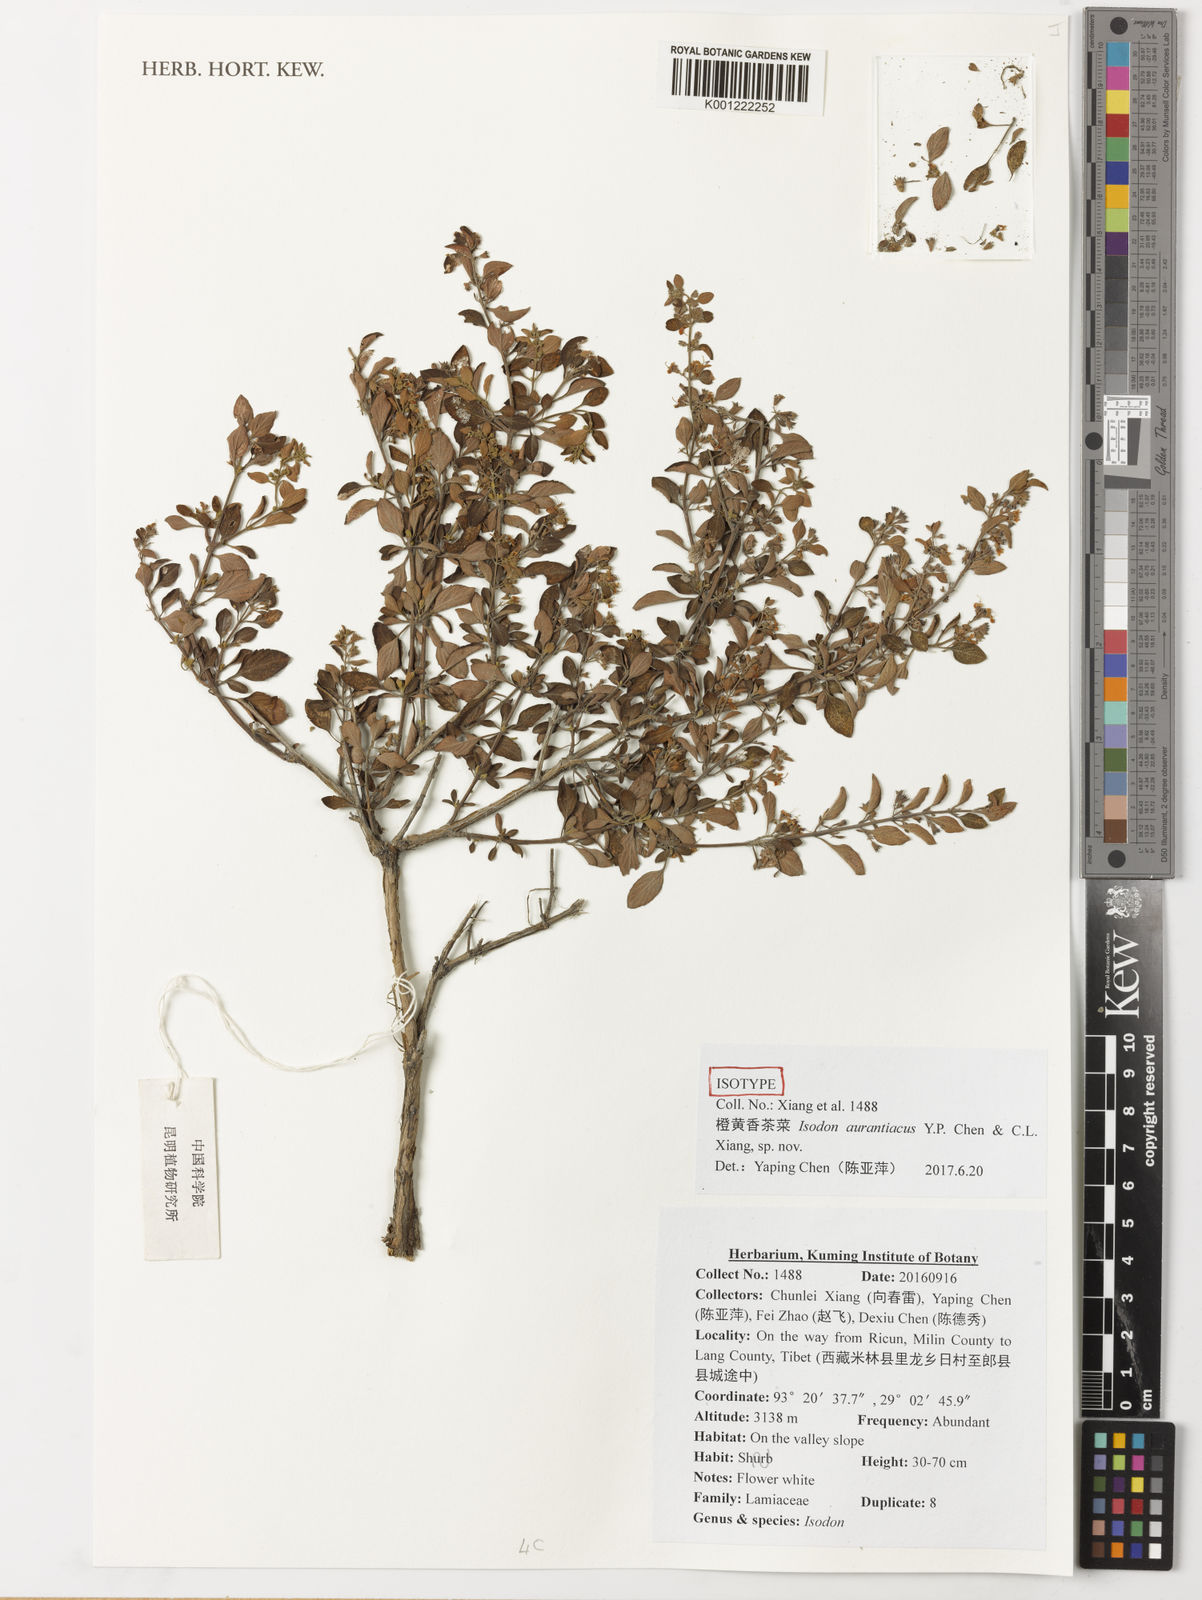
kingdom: Plantae
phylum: Tracheophyta
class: Magnoliopsida
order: Lamiales
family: Lamiaceae
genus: Isodon
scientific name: Isodon aurantiacus
